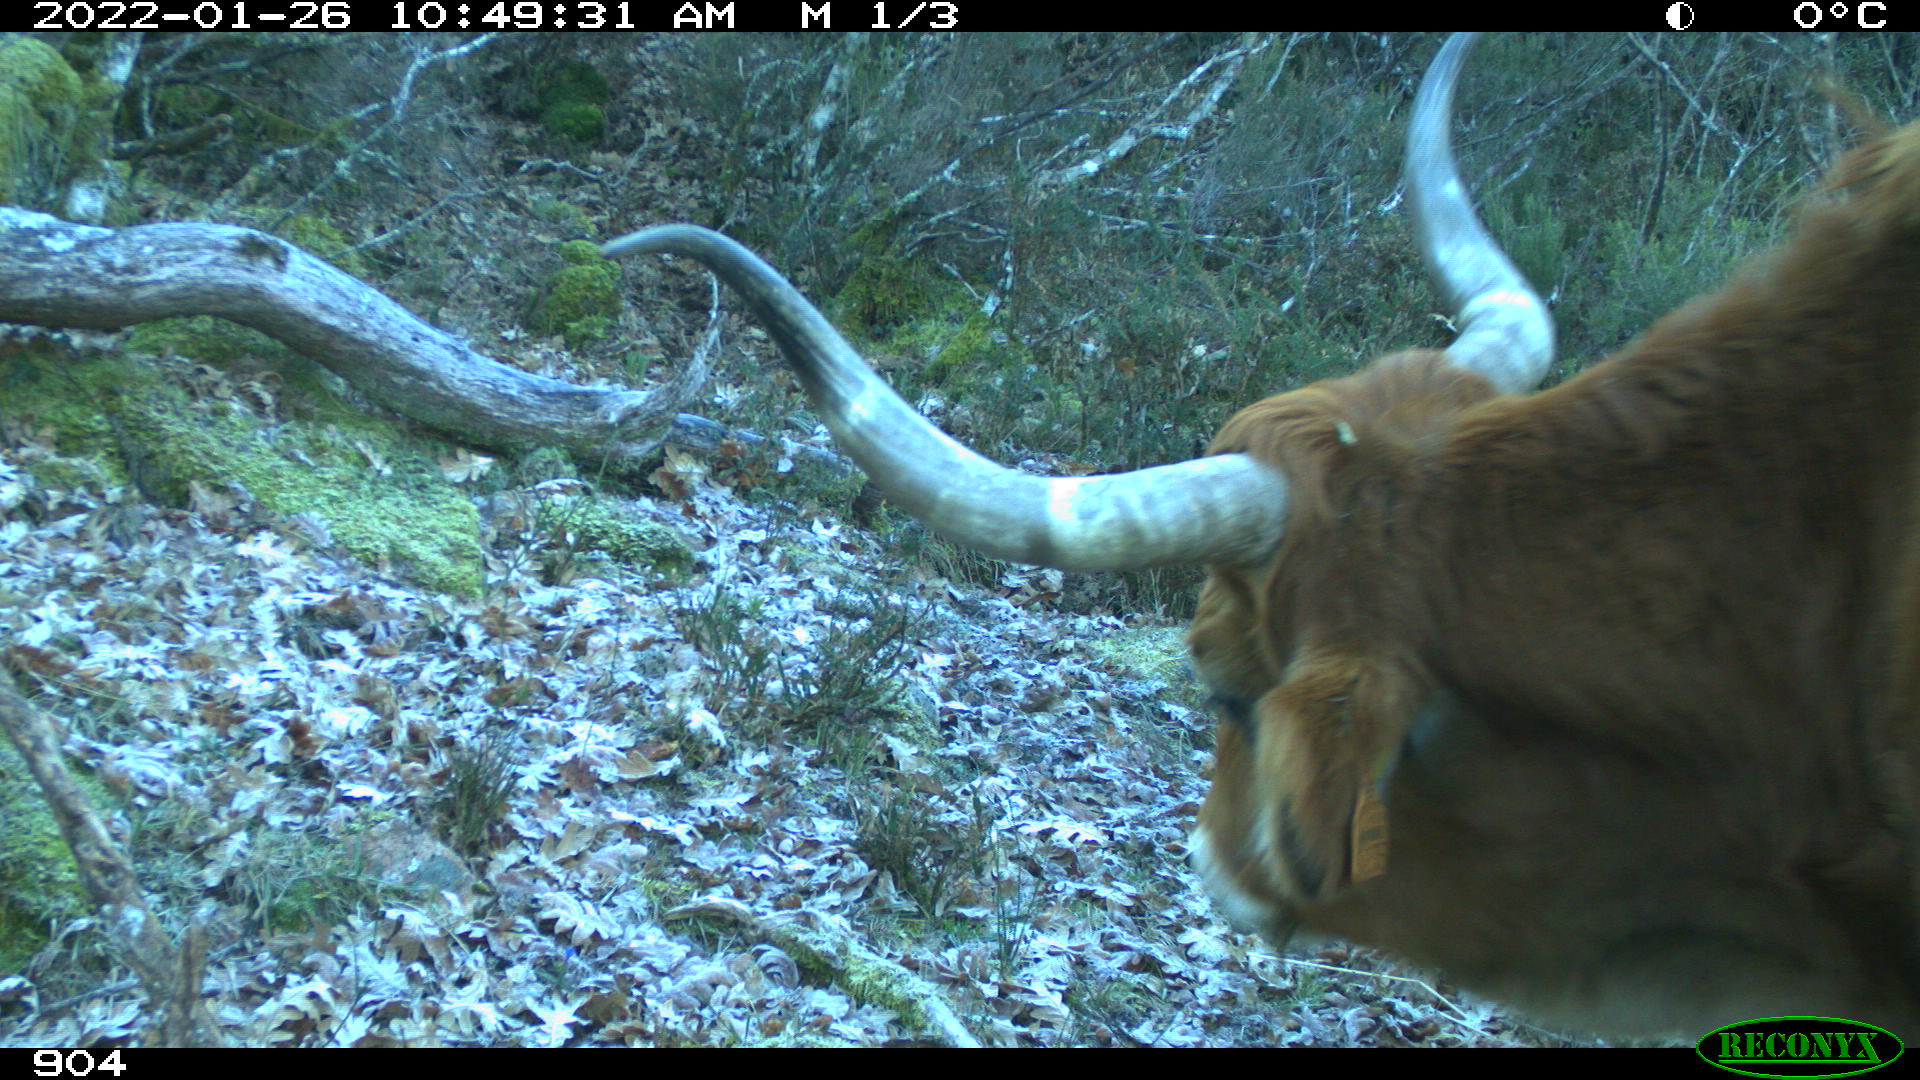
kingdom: Animalia
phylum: Chordata
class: Mammalia
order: Artiodactyla
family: Bovidae
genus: Bos
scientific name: Bos taurus
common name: Domesticated cattle
